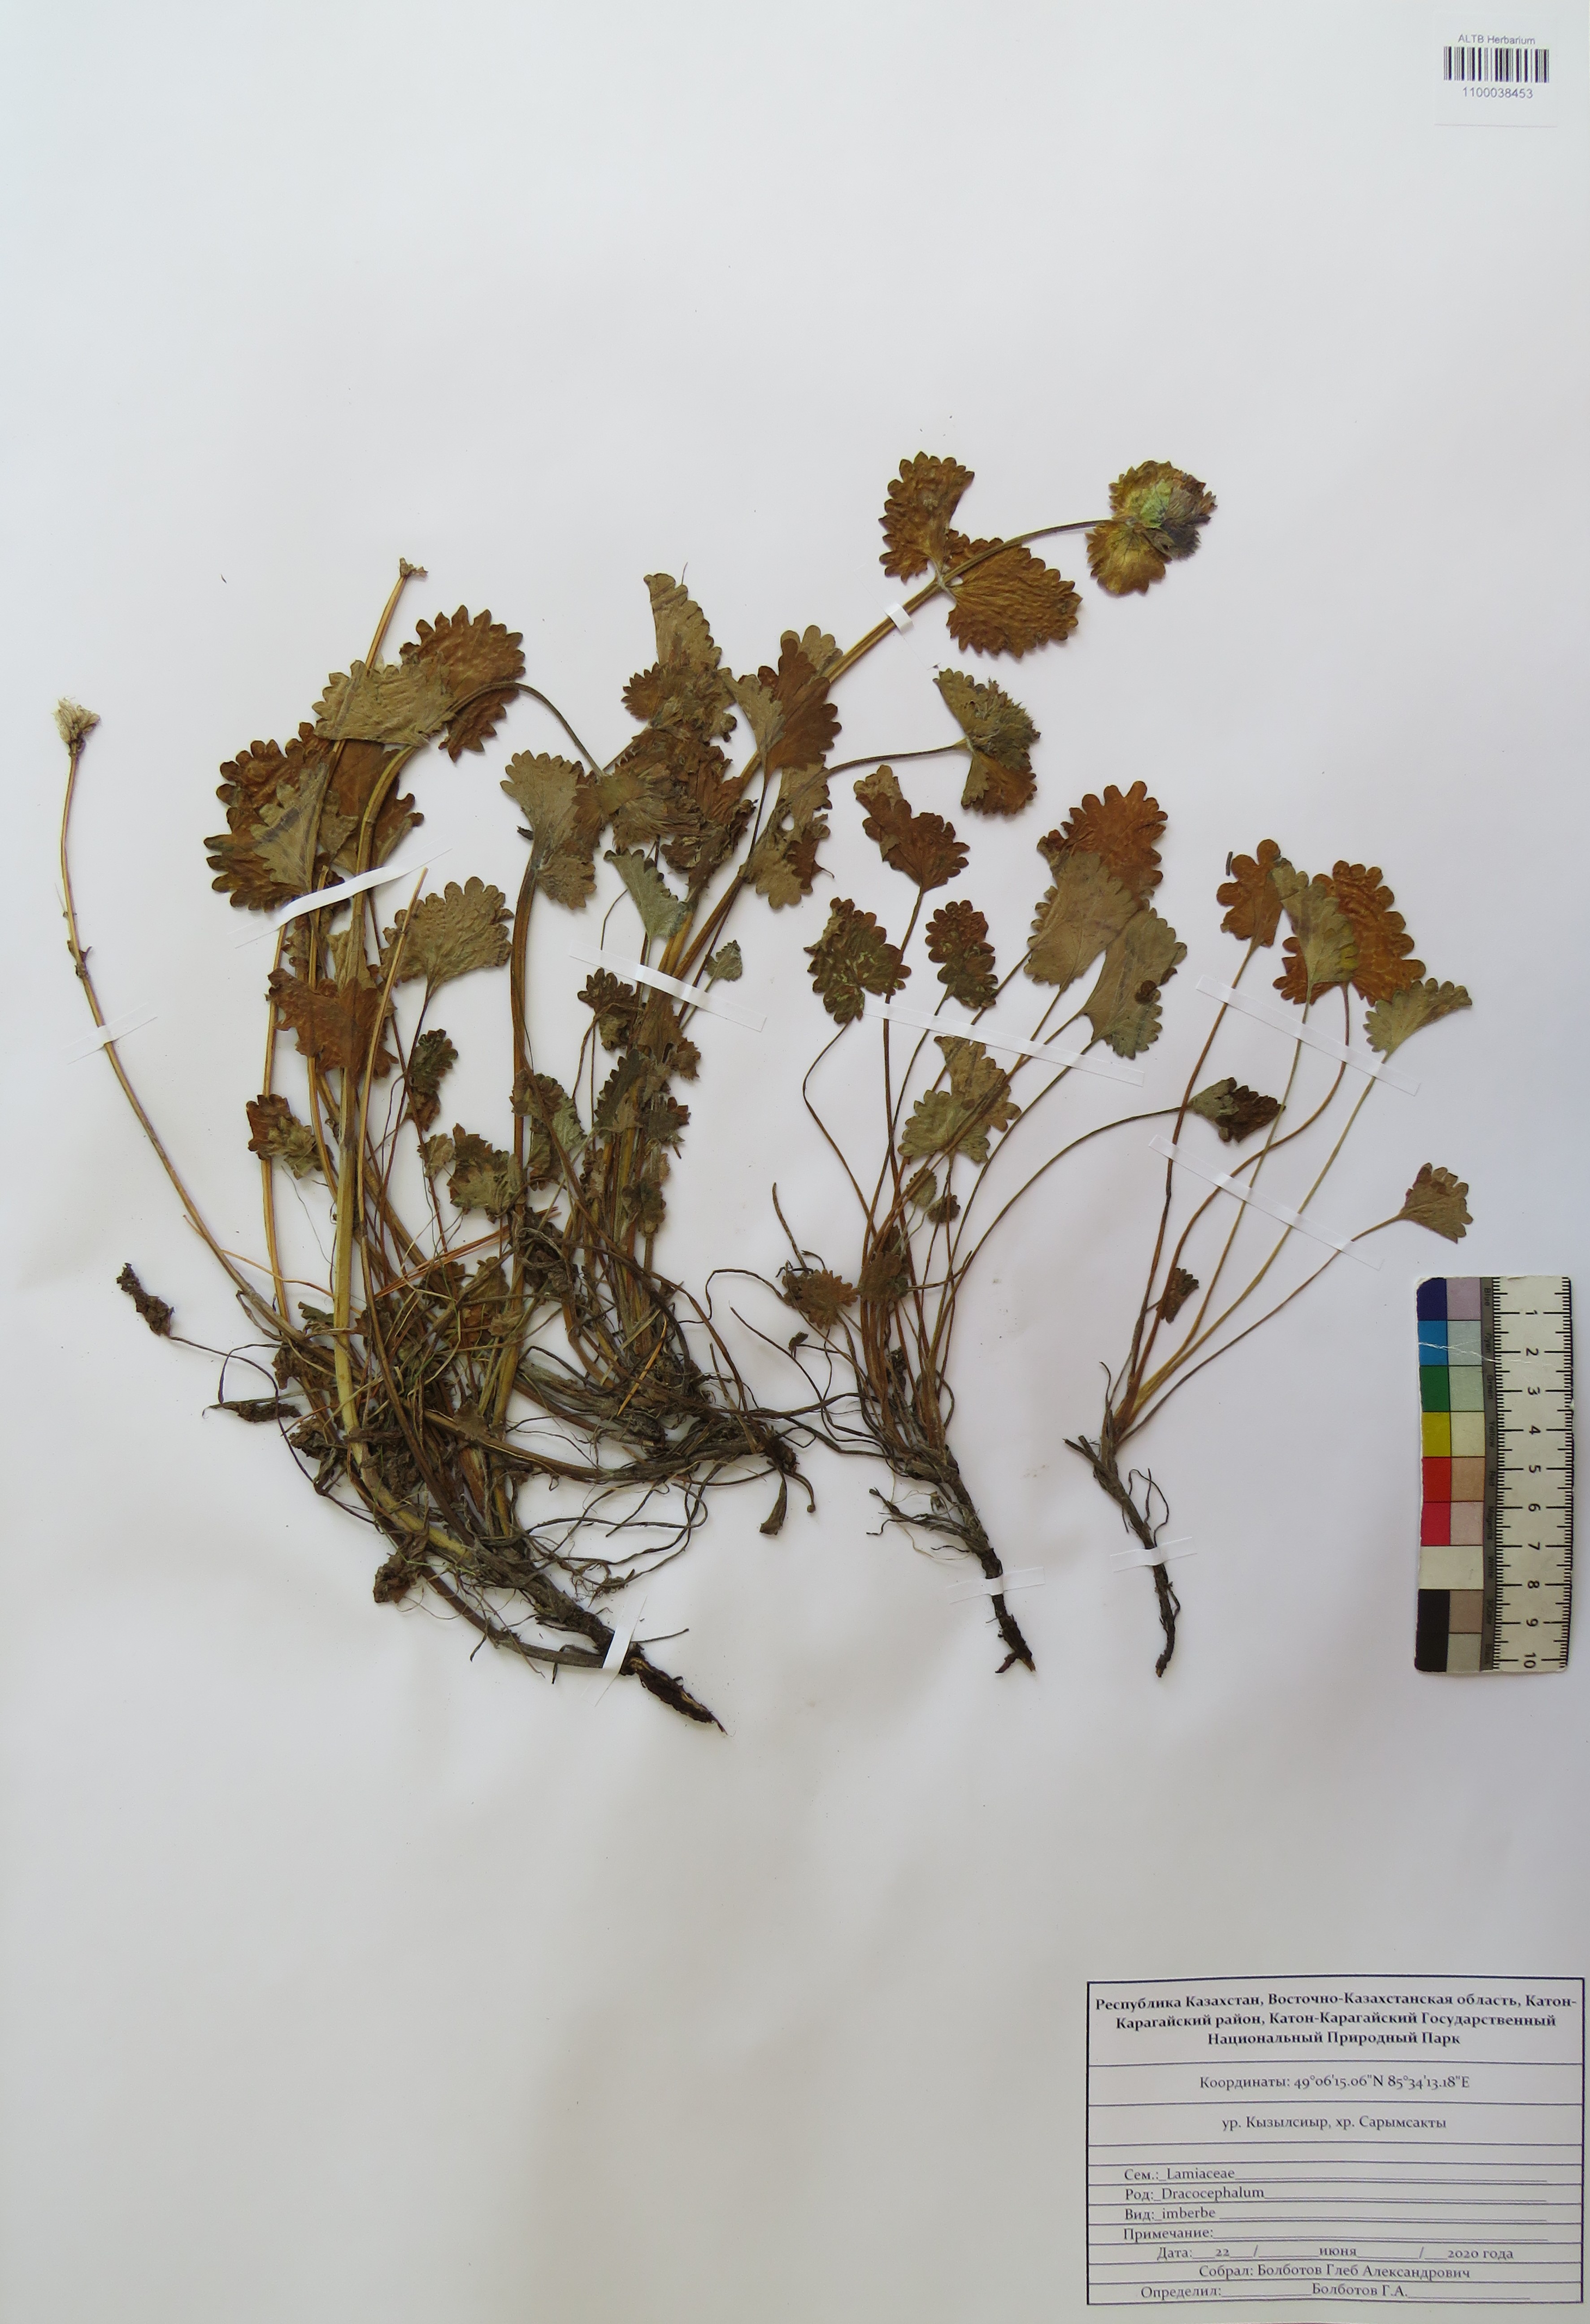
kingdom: Plantae
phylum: Tracheophyta
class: Magnoliopsida
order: Lamiales
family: Lamiaceae
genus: Dracocephalum
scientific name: Dracocephalum imberbe
